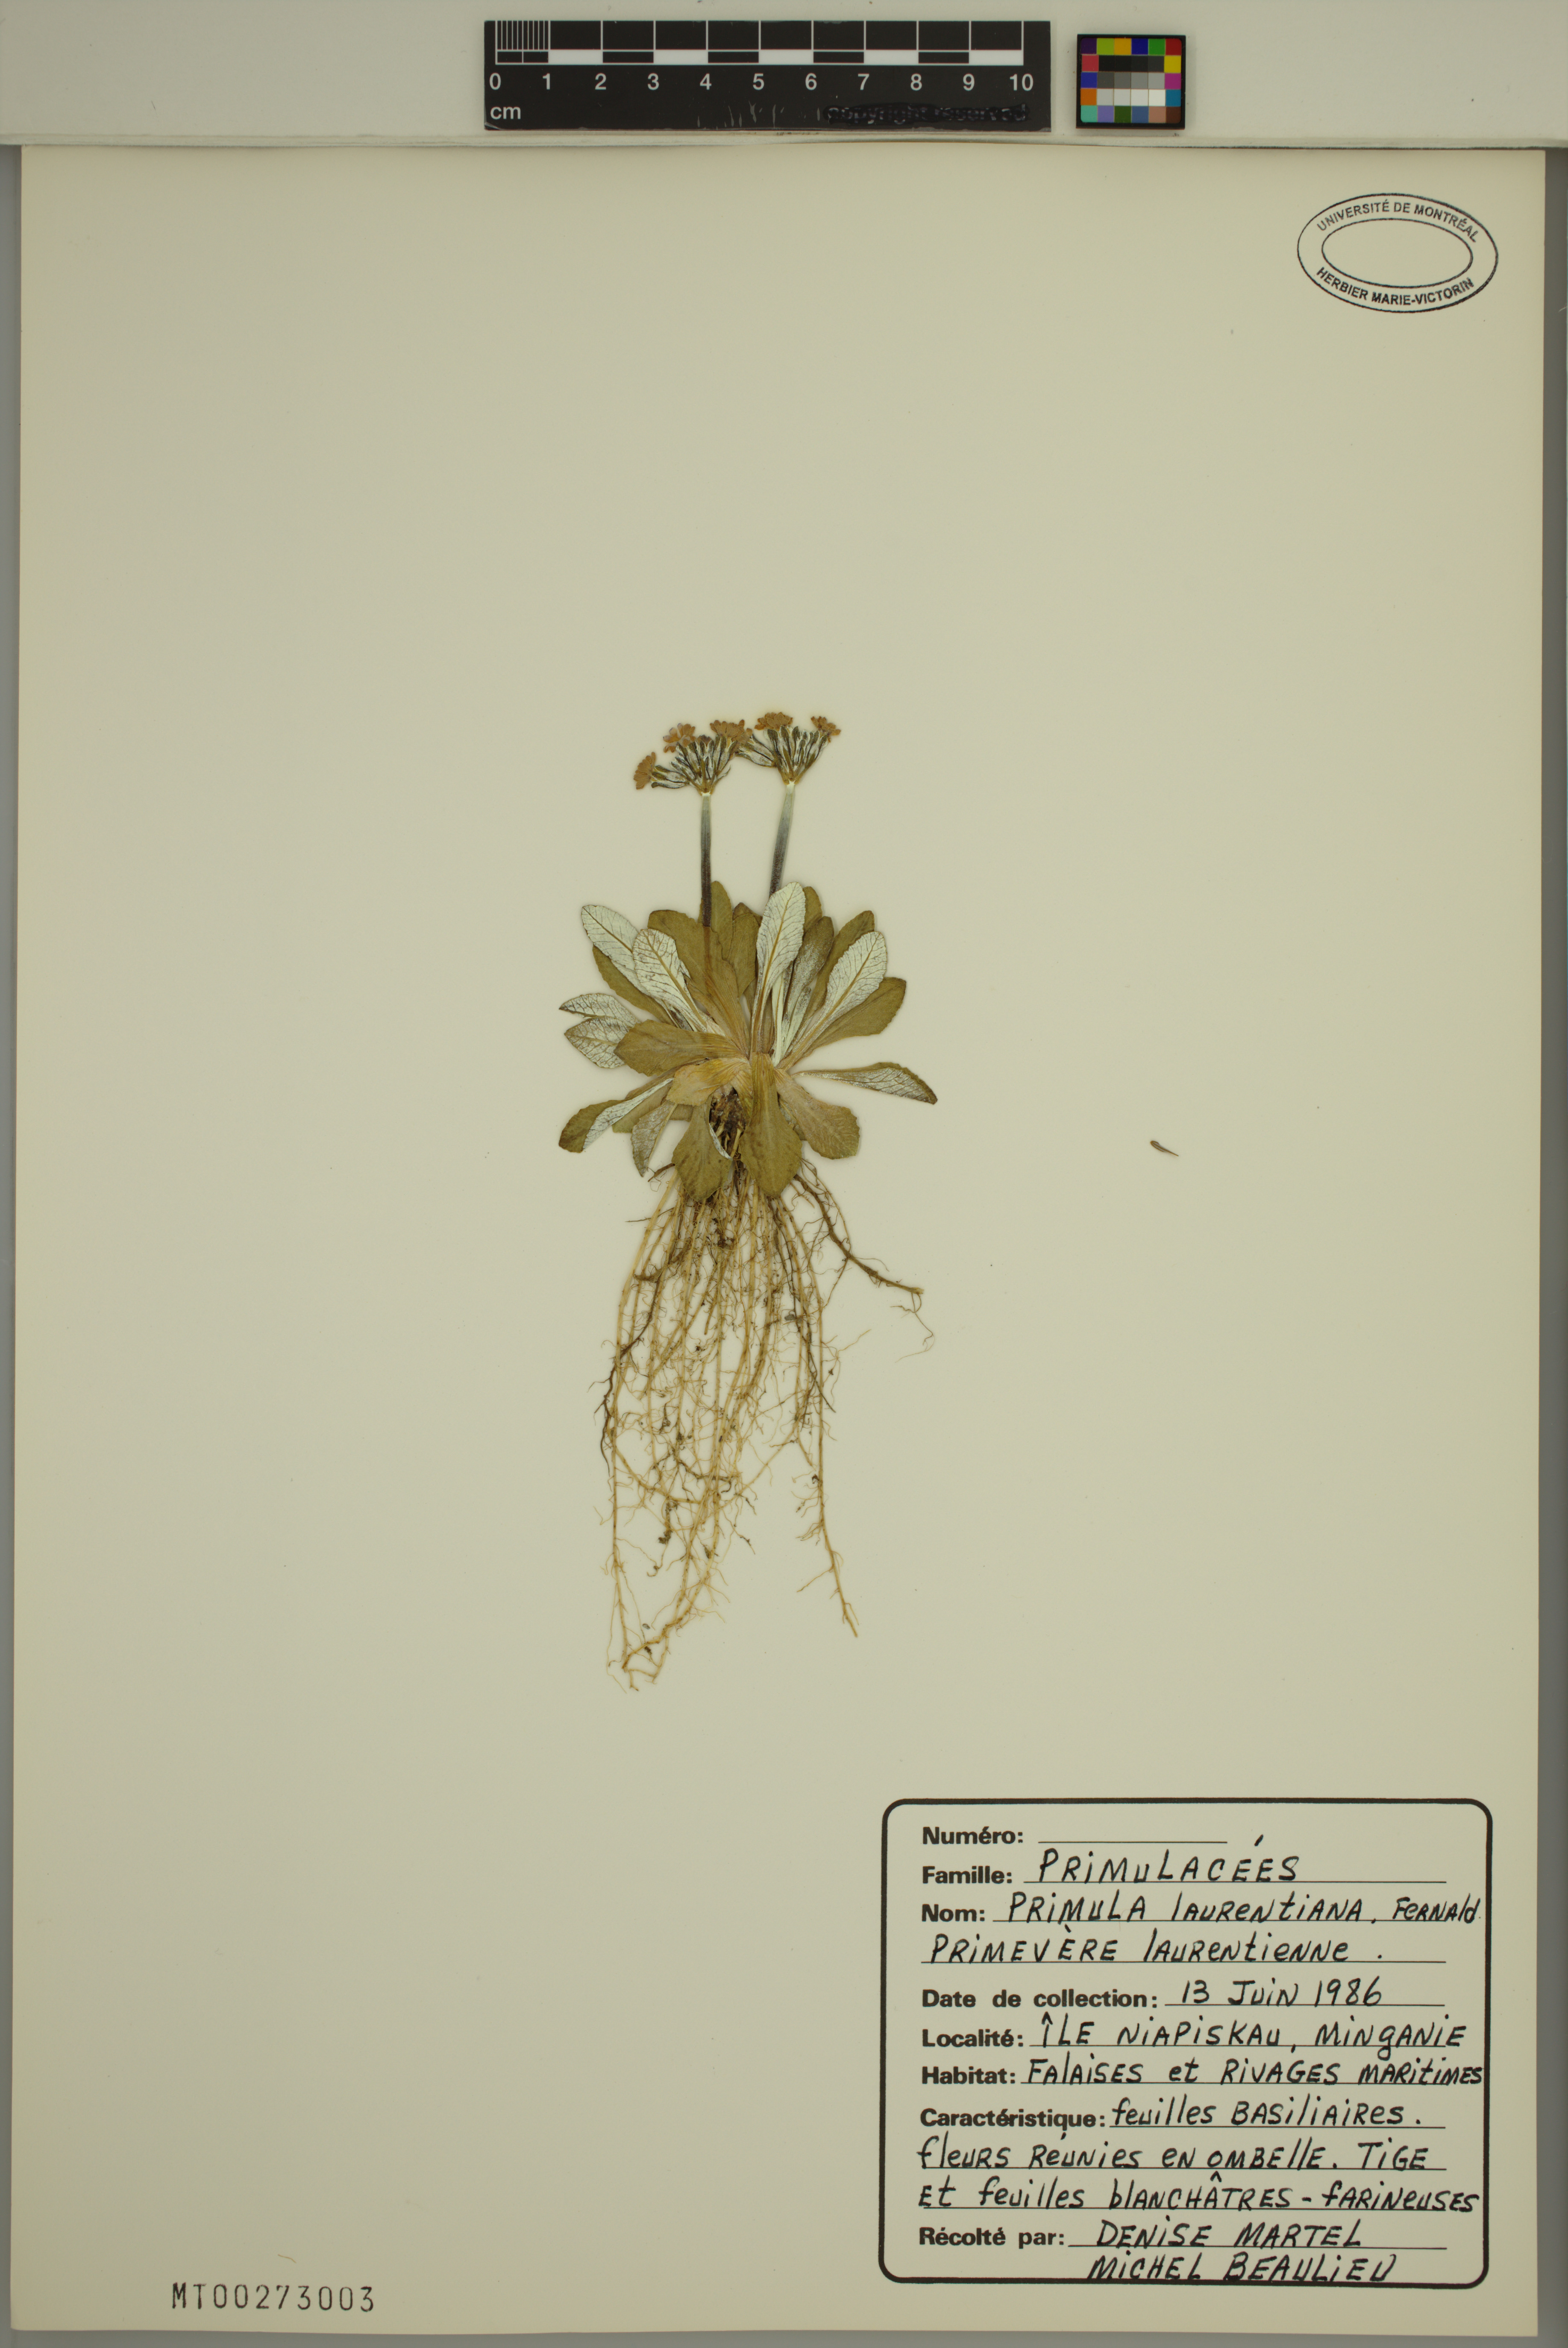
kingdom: Plantae
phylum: Tracheophyta
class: Magnoliopsida
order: Ericales
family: Primulaceae
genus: Primula
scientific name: Primula laurentiana
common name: Bird-eye primrose
